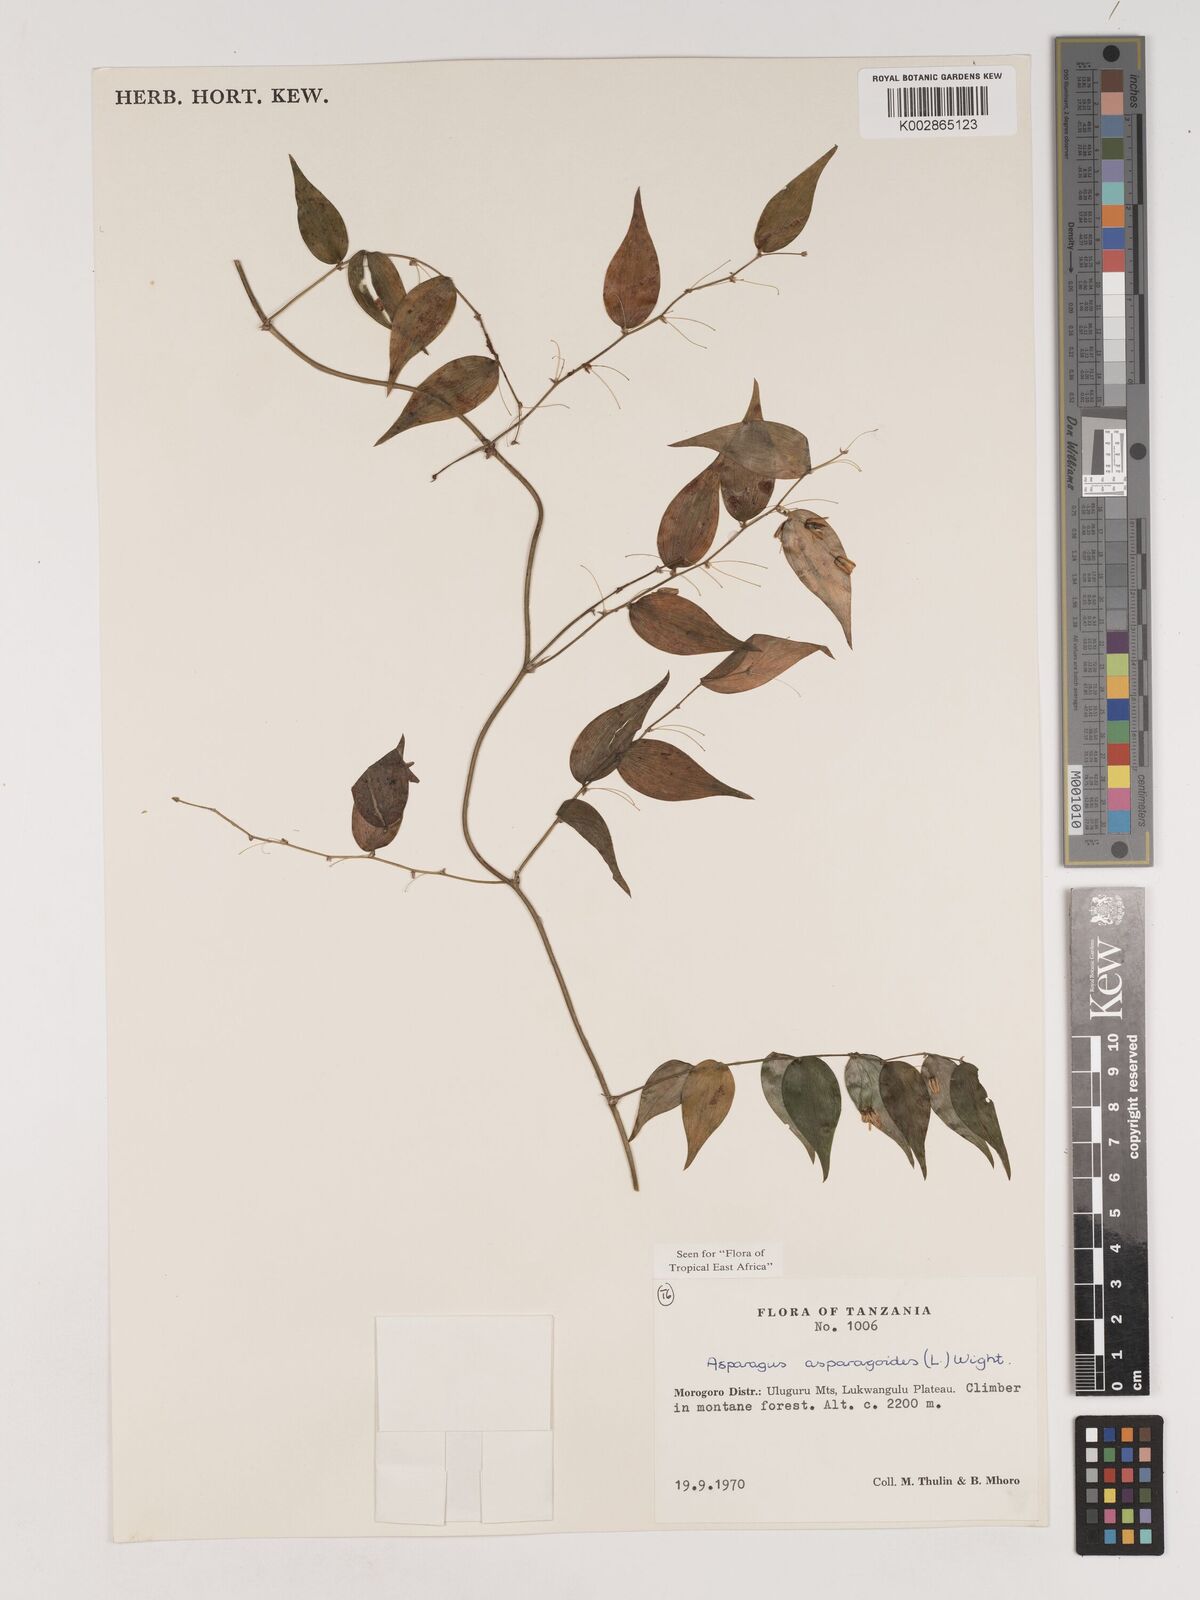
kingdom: Plantae
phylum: Tracheophyta
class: Liliopsida
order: Asparagales
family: Asparagaceae
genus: Asparagus
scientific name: Asparagus asparagoides
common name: African asparagus fern
